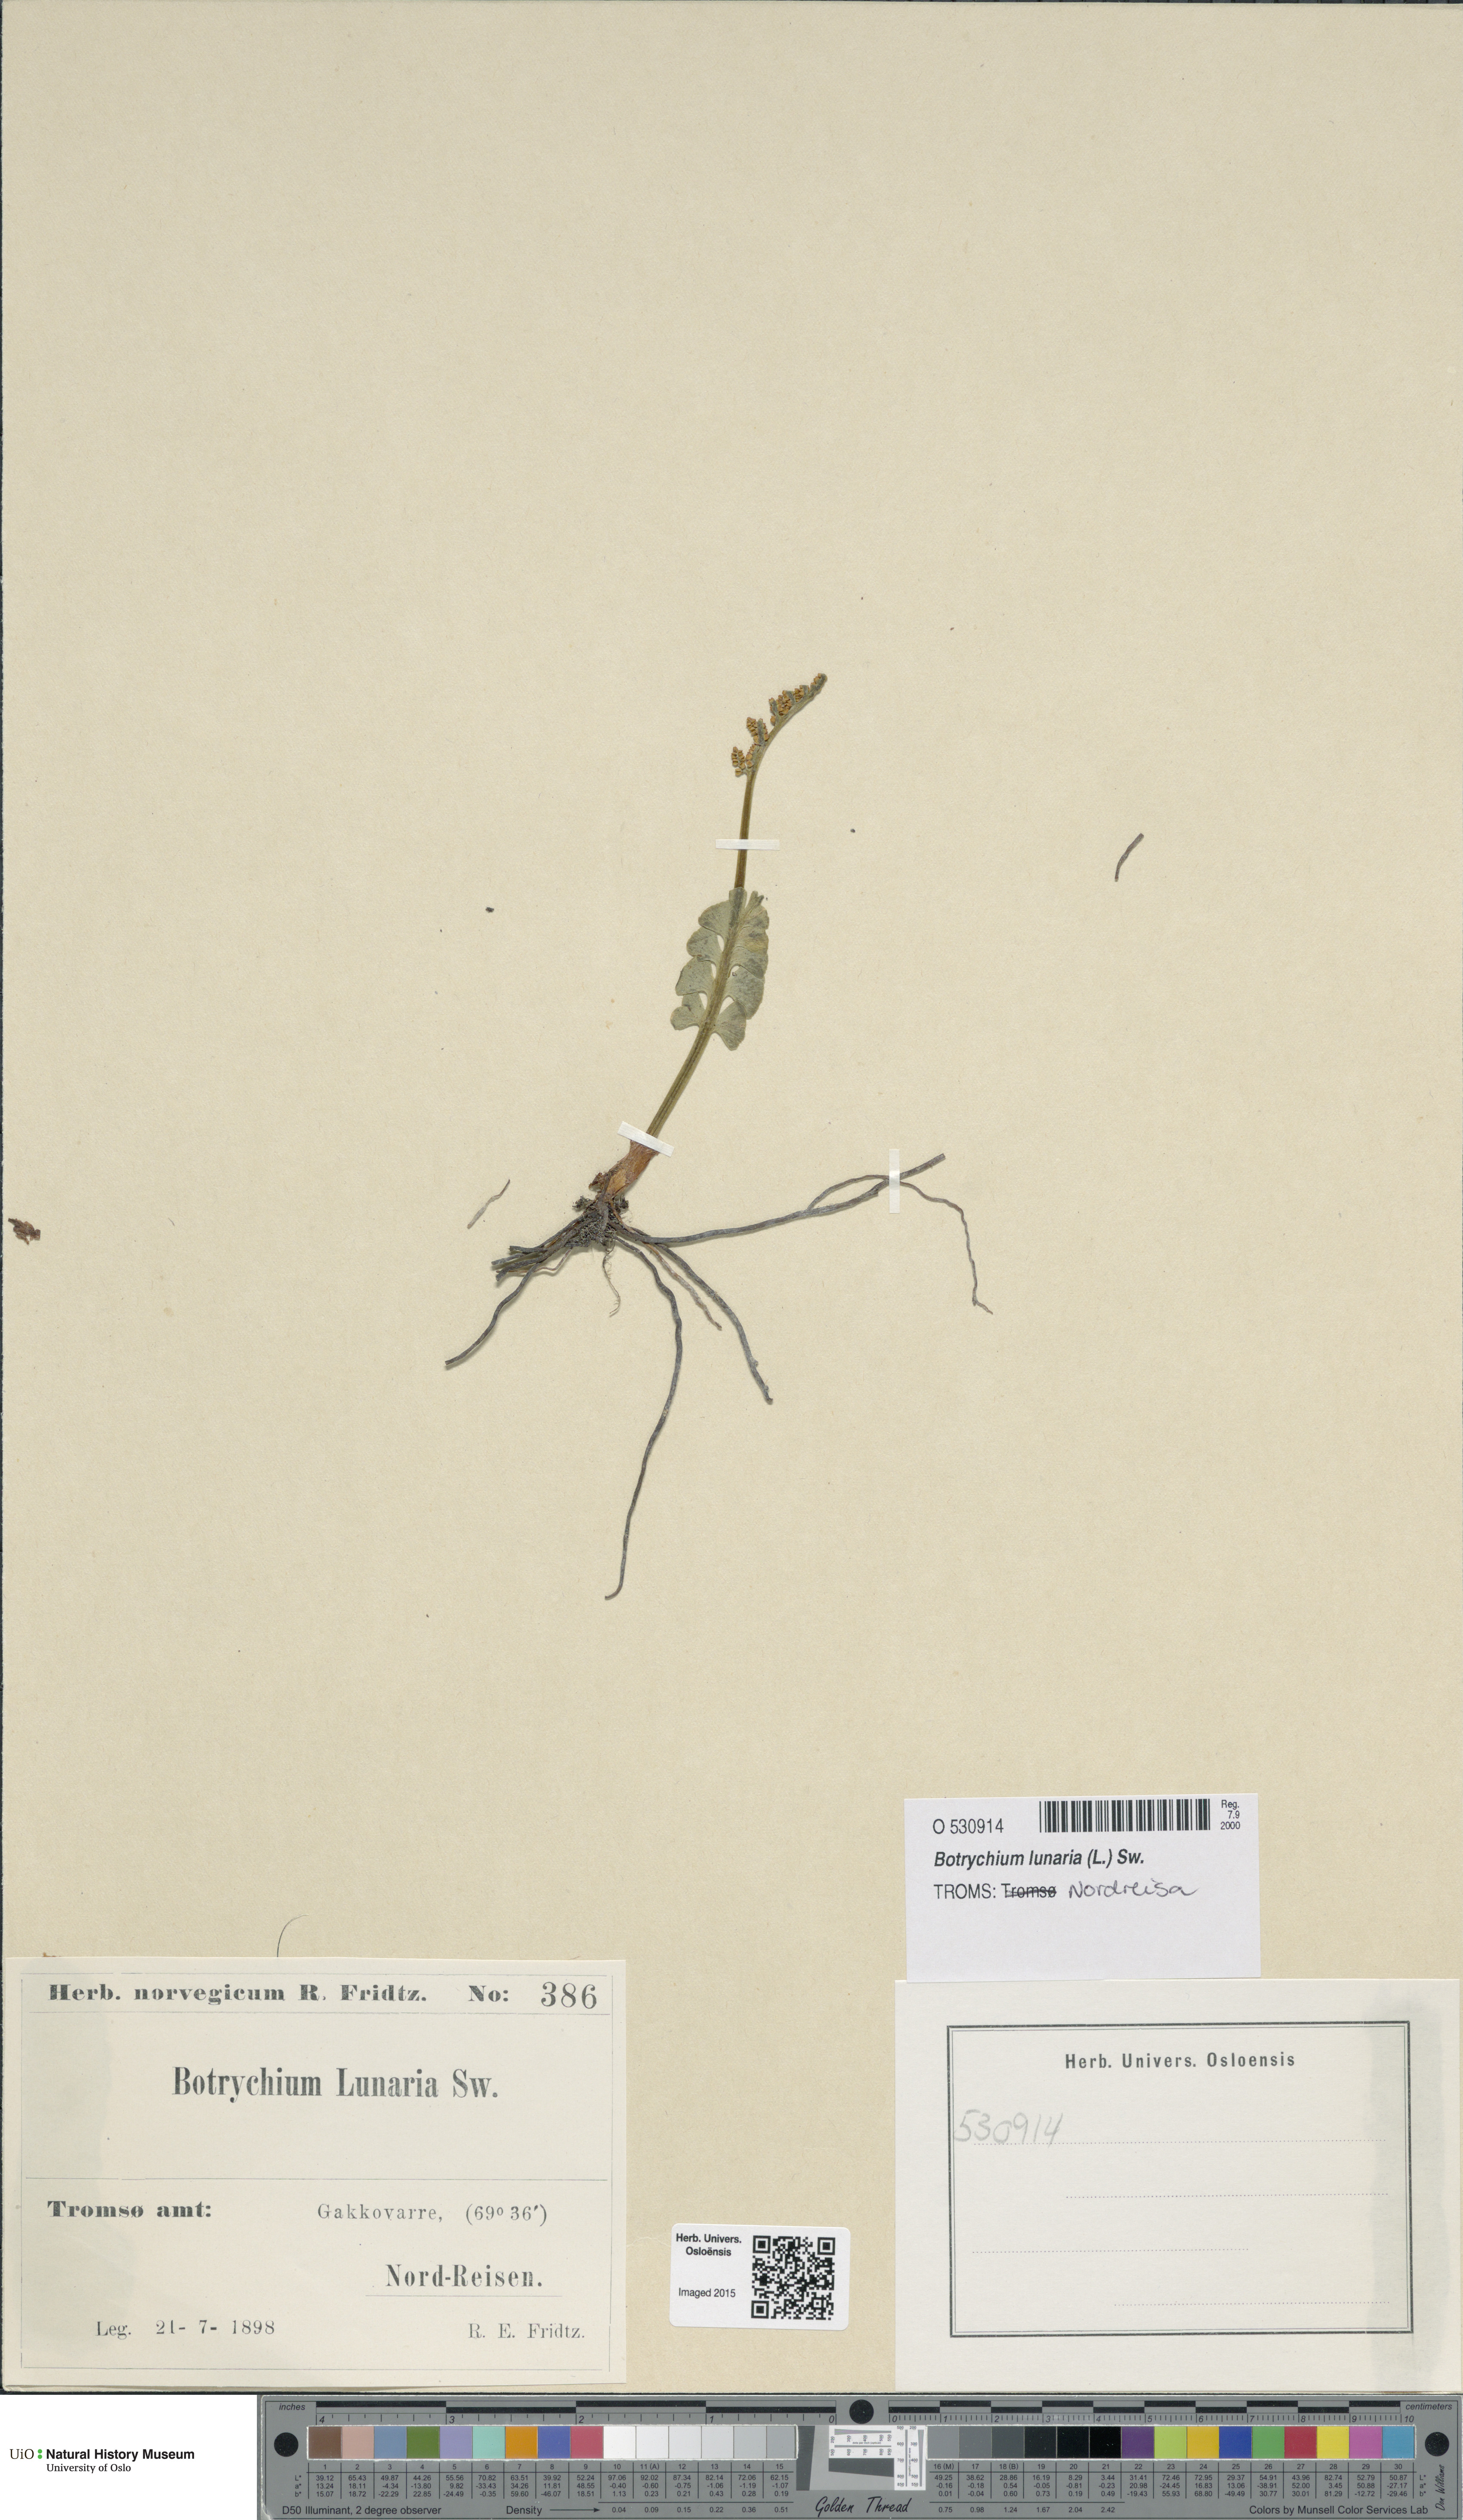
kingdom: Plantae
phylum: Tracheophyta
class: Polypodiopsida
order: Ophioglossales
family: Ophioglossaceae
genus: Botrychium
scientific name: Botrychium lunaria
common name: Moonwort
